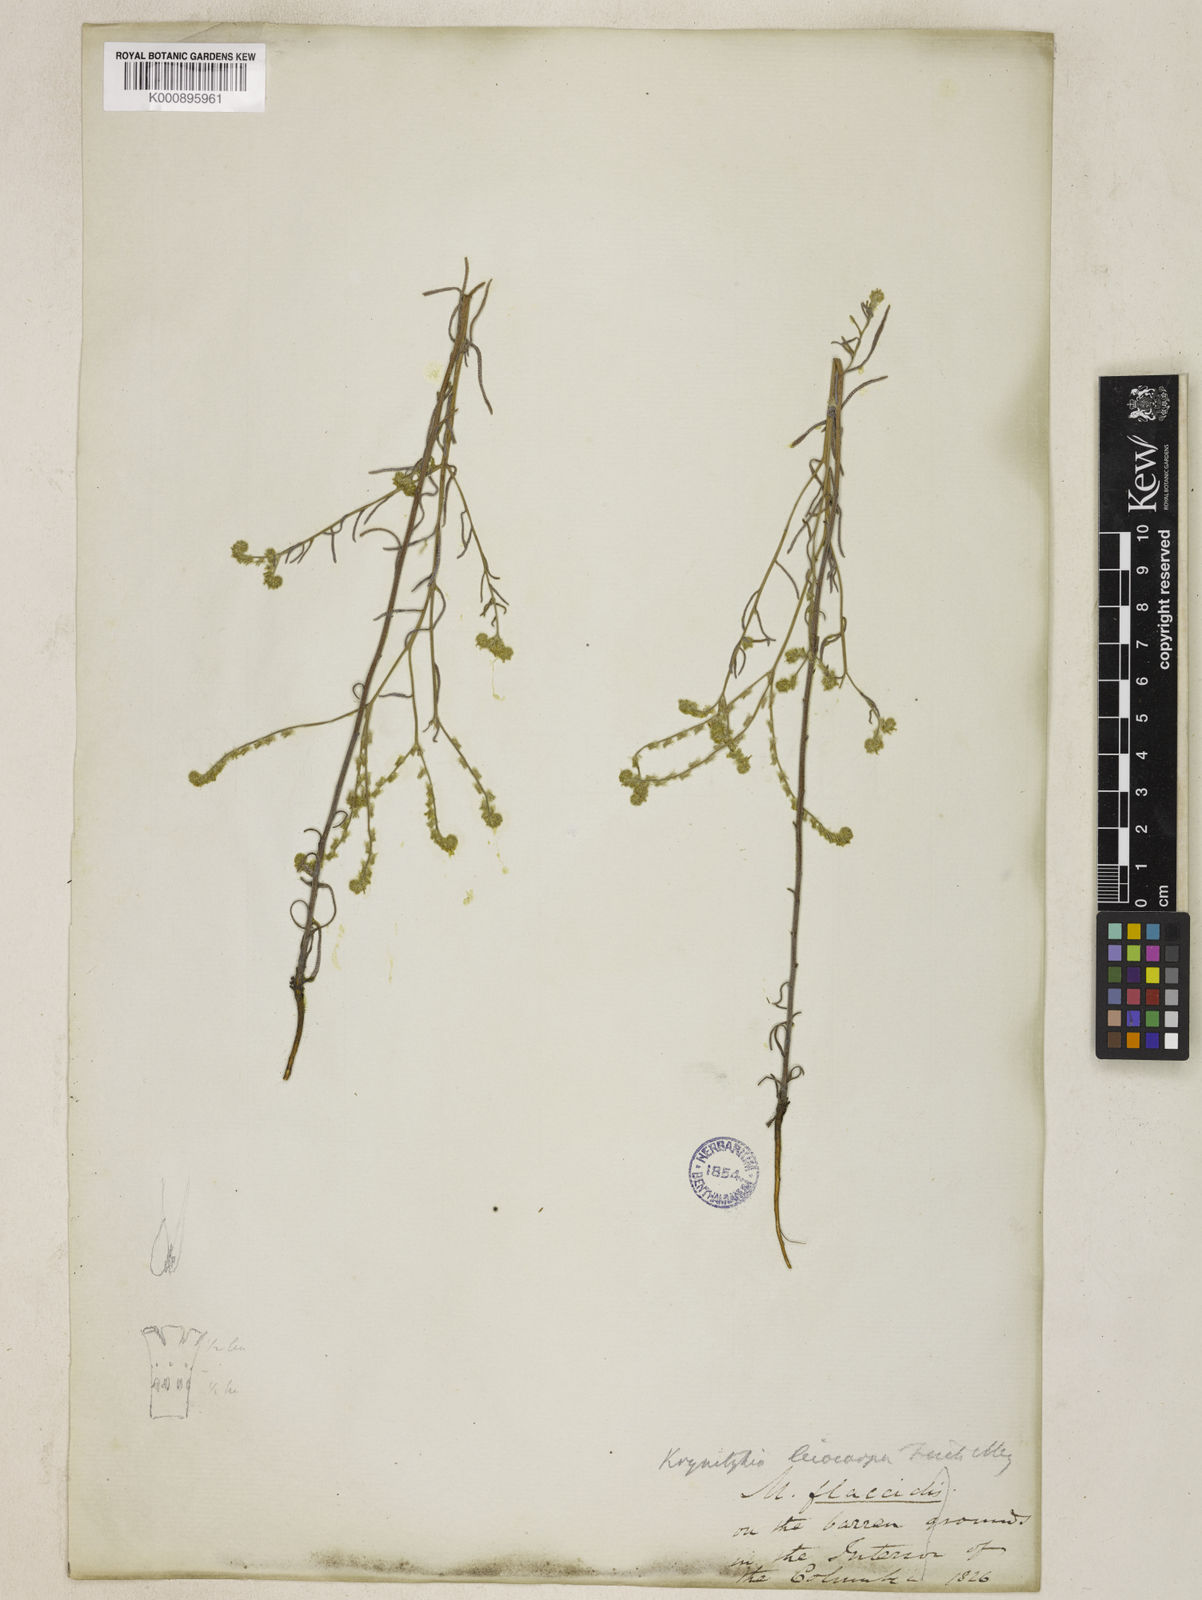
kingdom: Plantae
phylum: Tracheophyta
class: Magnoliopsida
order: Boraginales
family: Boraginaceae
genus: Cryptantha
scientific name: Cryptantha flaccida
